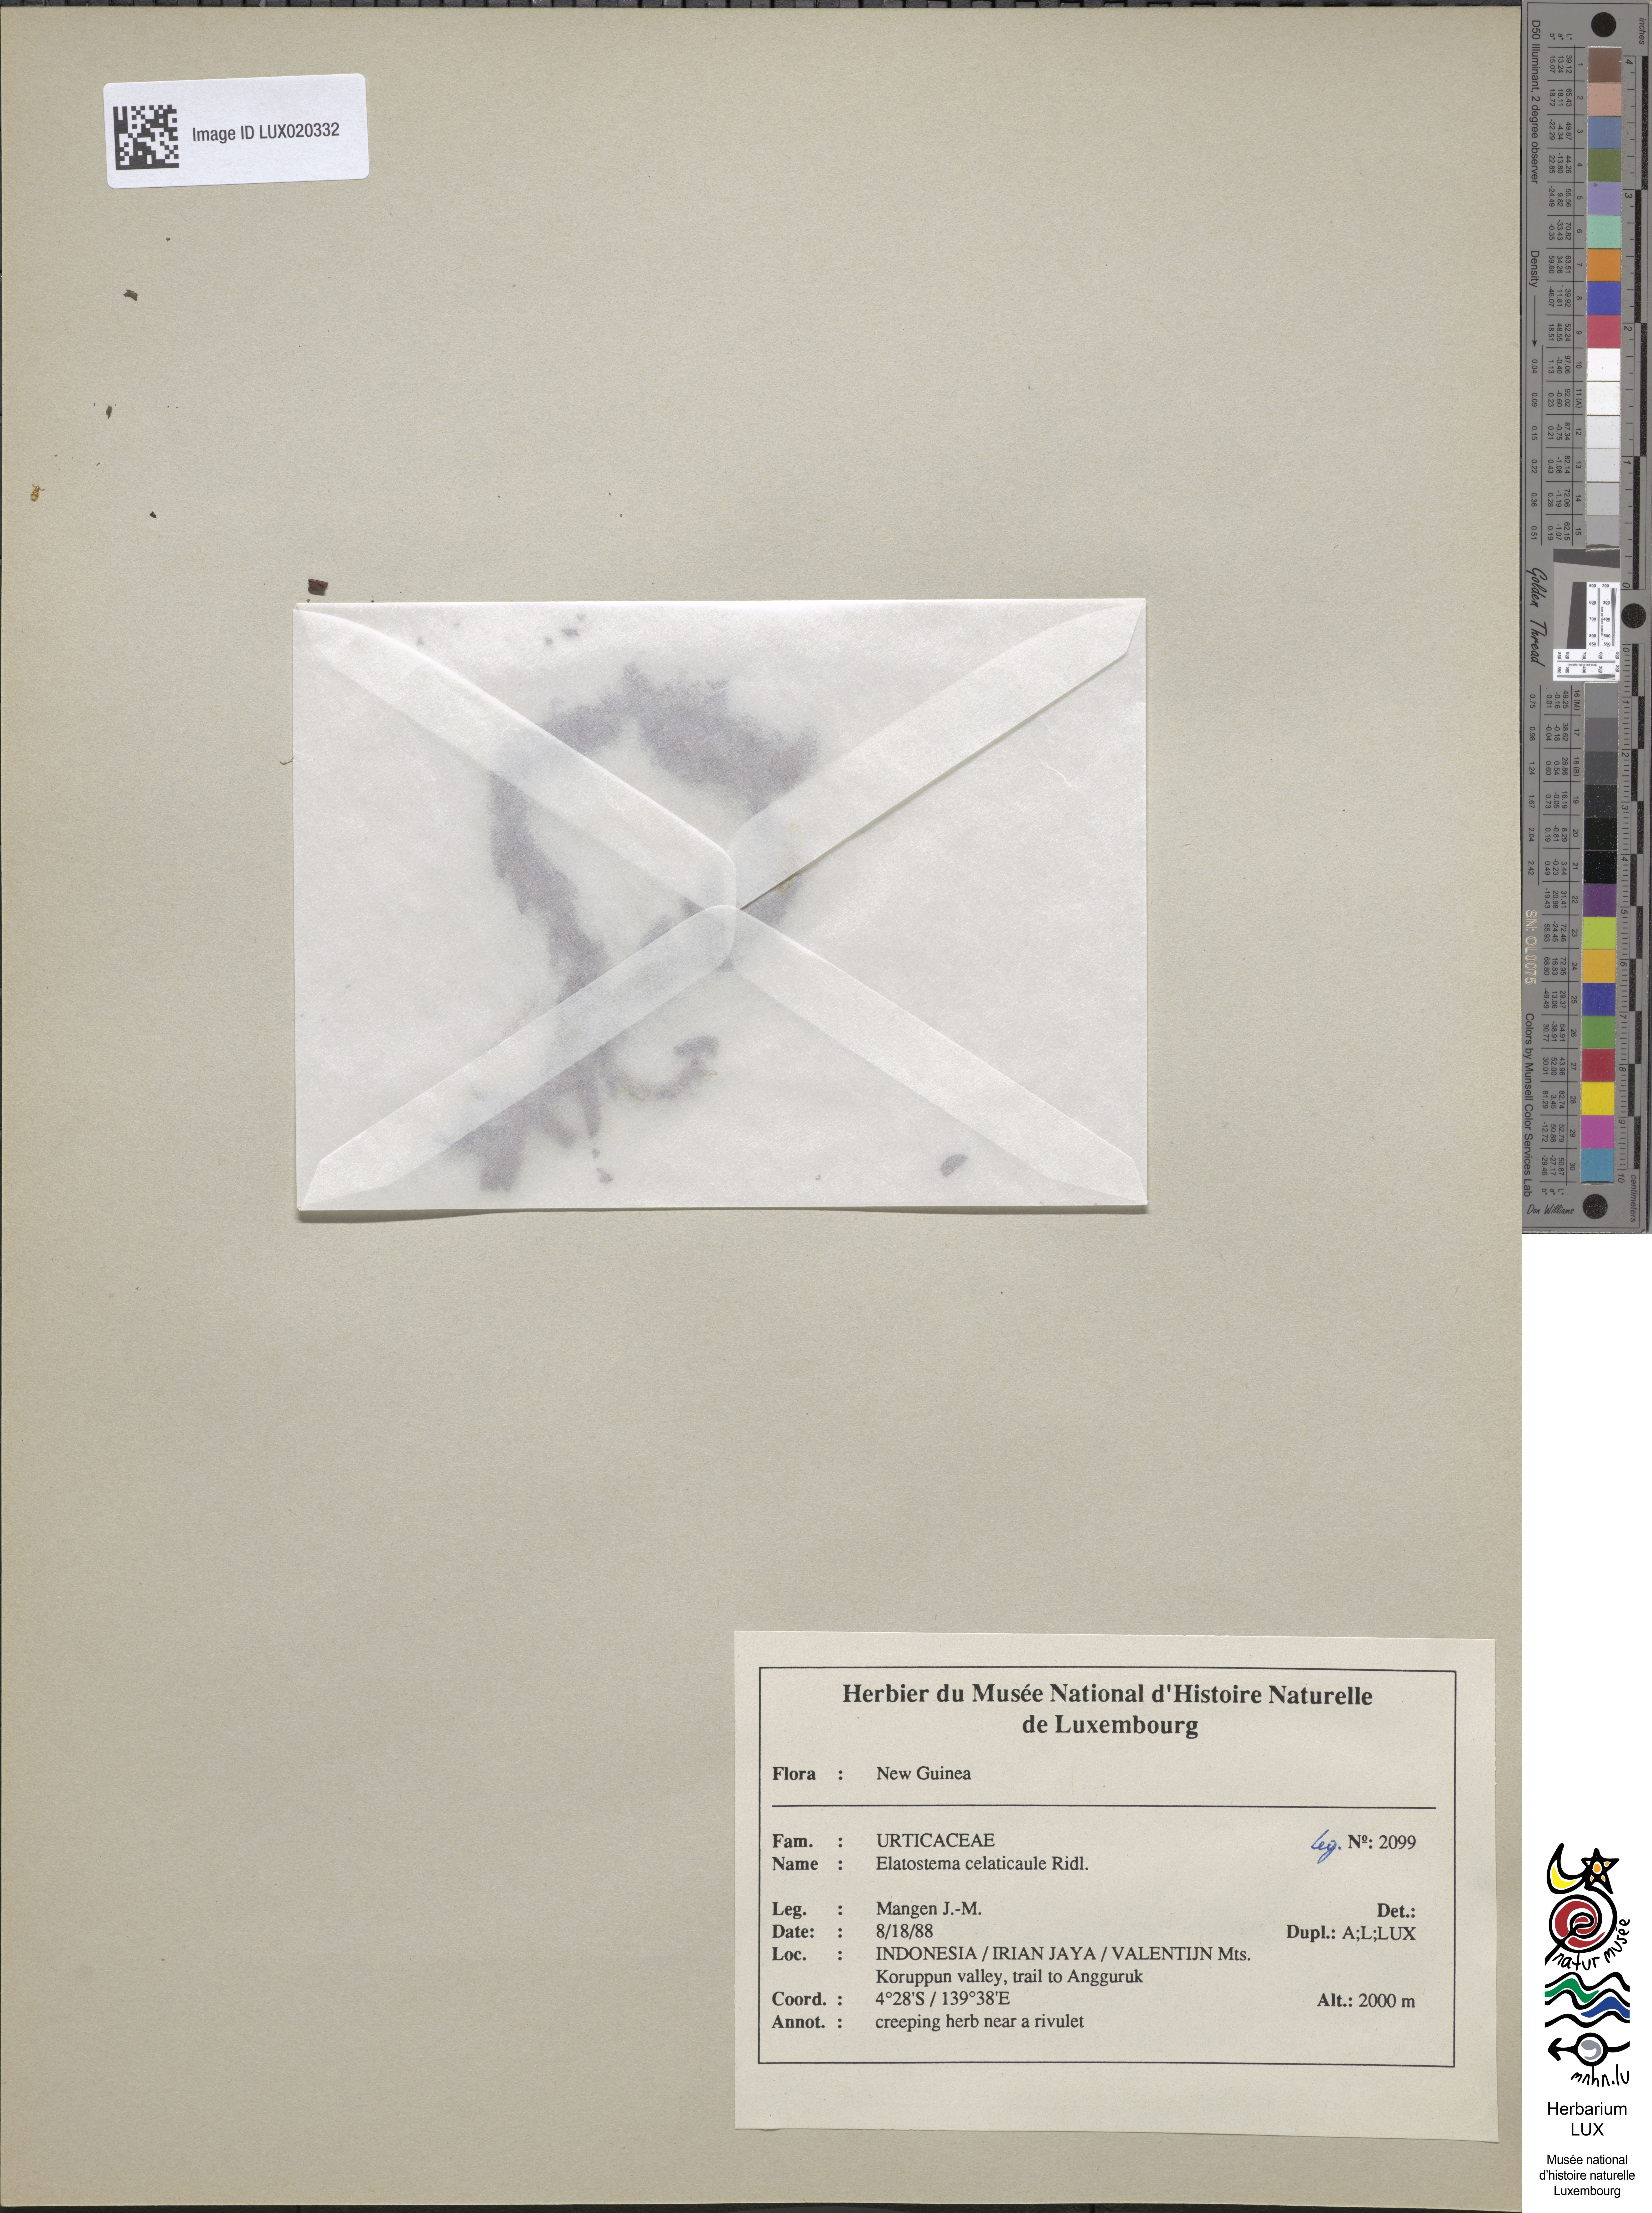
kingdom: Plantae
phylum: Tracheophyta
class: Magnoliopsida
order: Rosales
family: Urticaceae
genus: Elatostema
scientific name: Elatostema celaticaule
